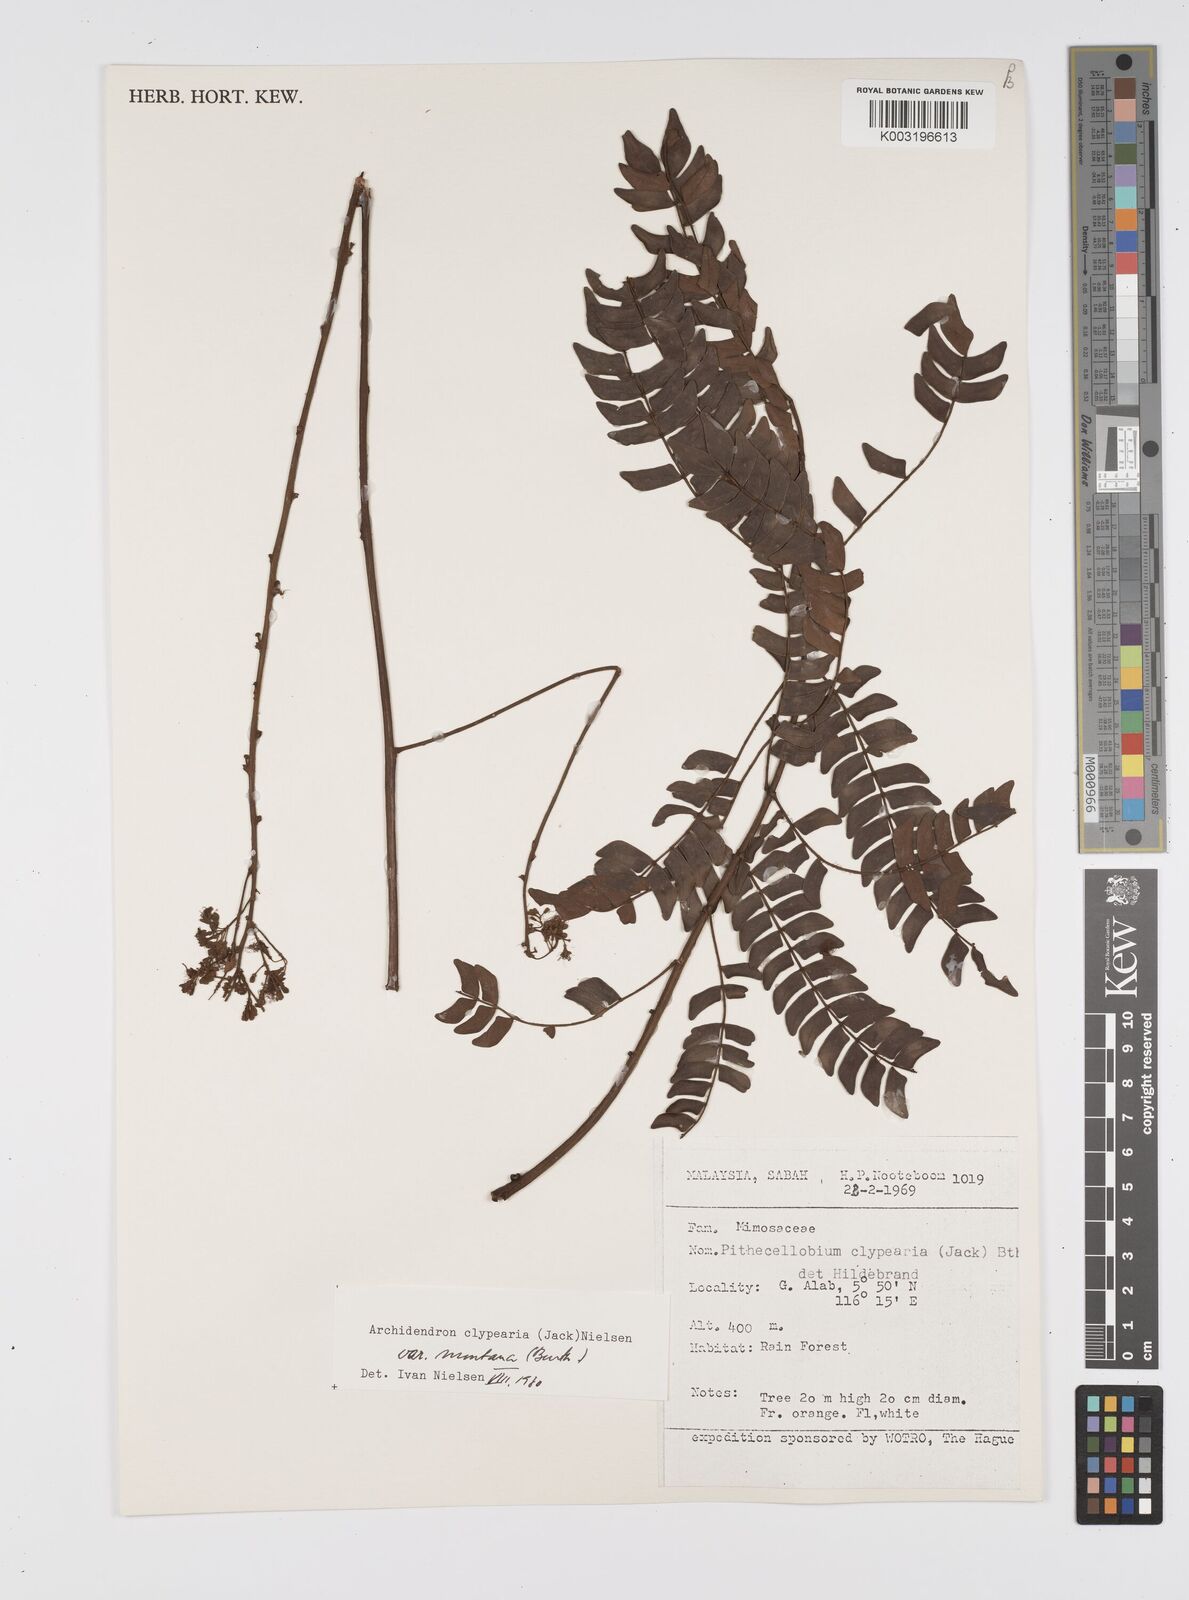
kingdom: Plantae
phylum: Tracheophyta
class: Magnoliopsida
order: Fabales
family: Fabaceae
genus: Archidendron
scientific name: Archidendron clypearia
